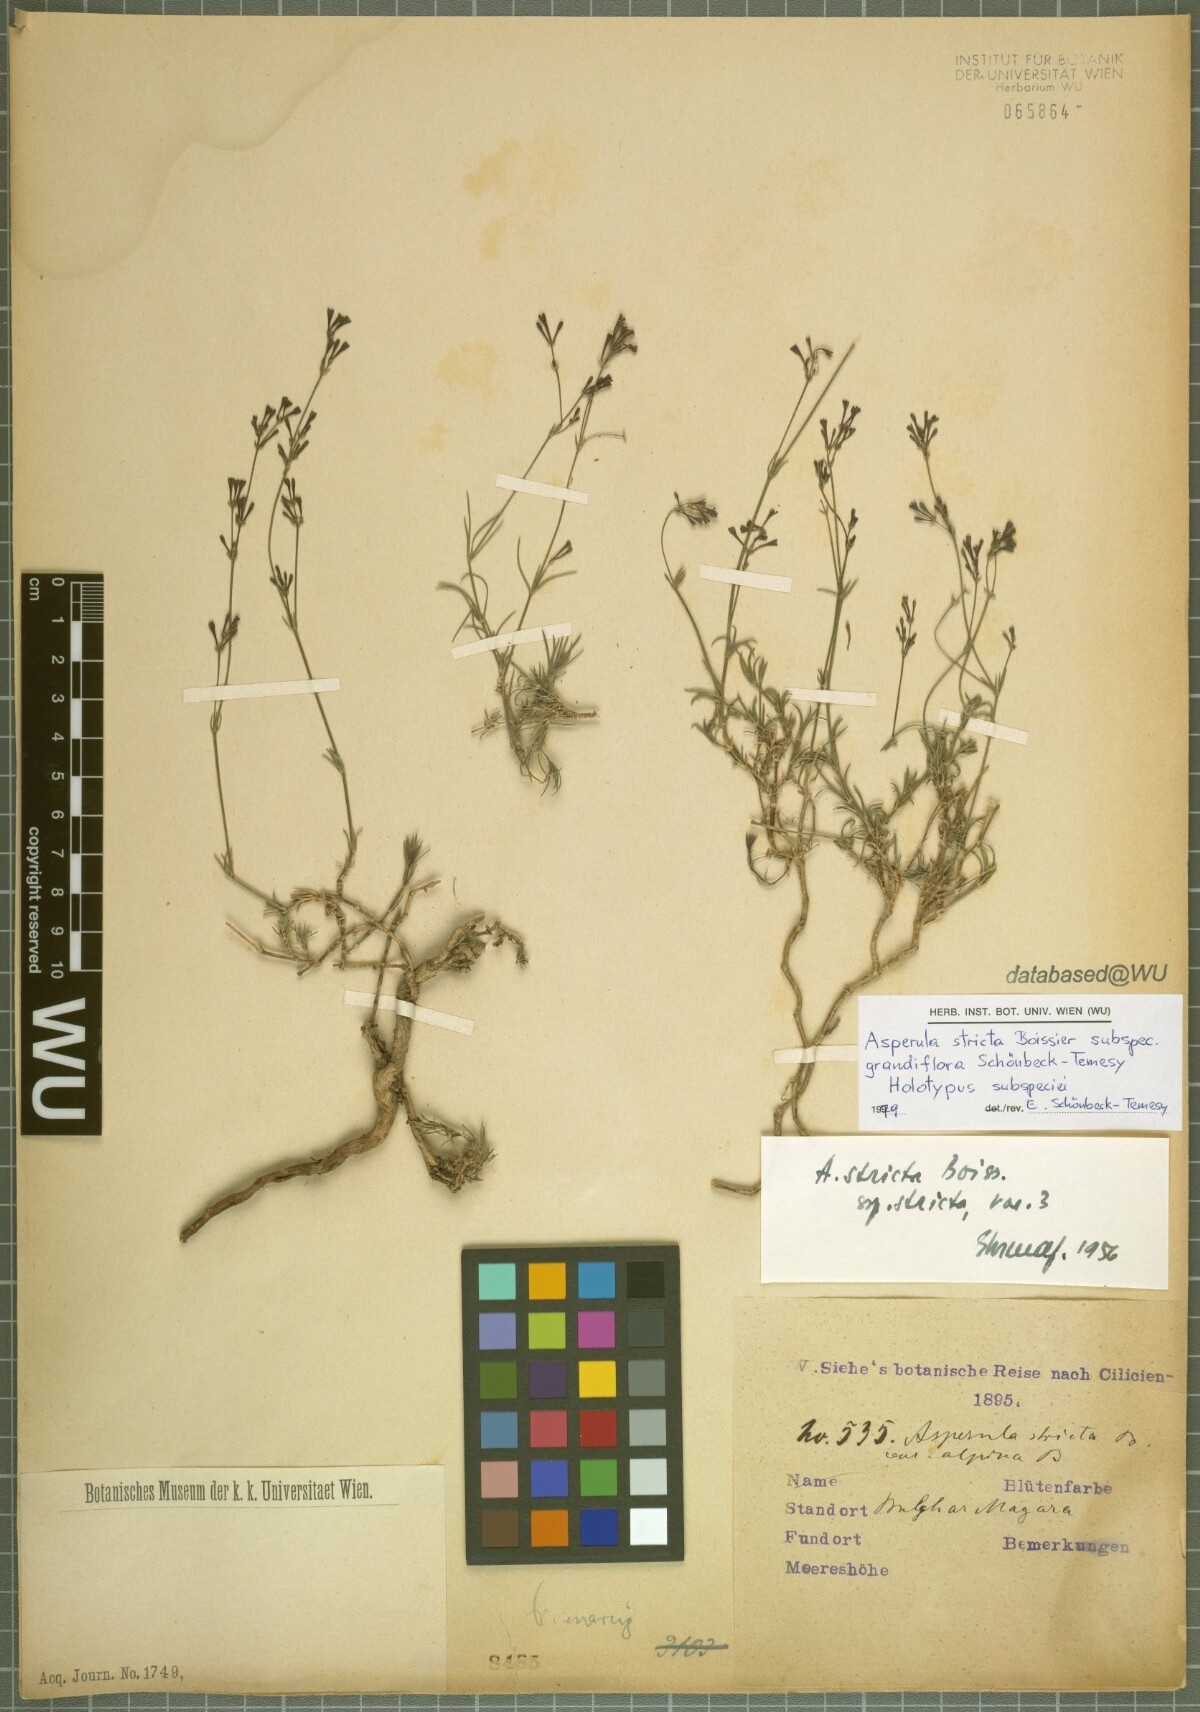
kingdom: Plantae
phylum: Tracheophyta
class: Magnoliopsida
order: Gentianales
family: Rubiaceae
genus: Cynanchica
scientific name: Cynanchica stricta
